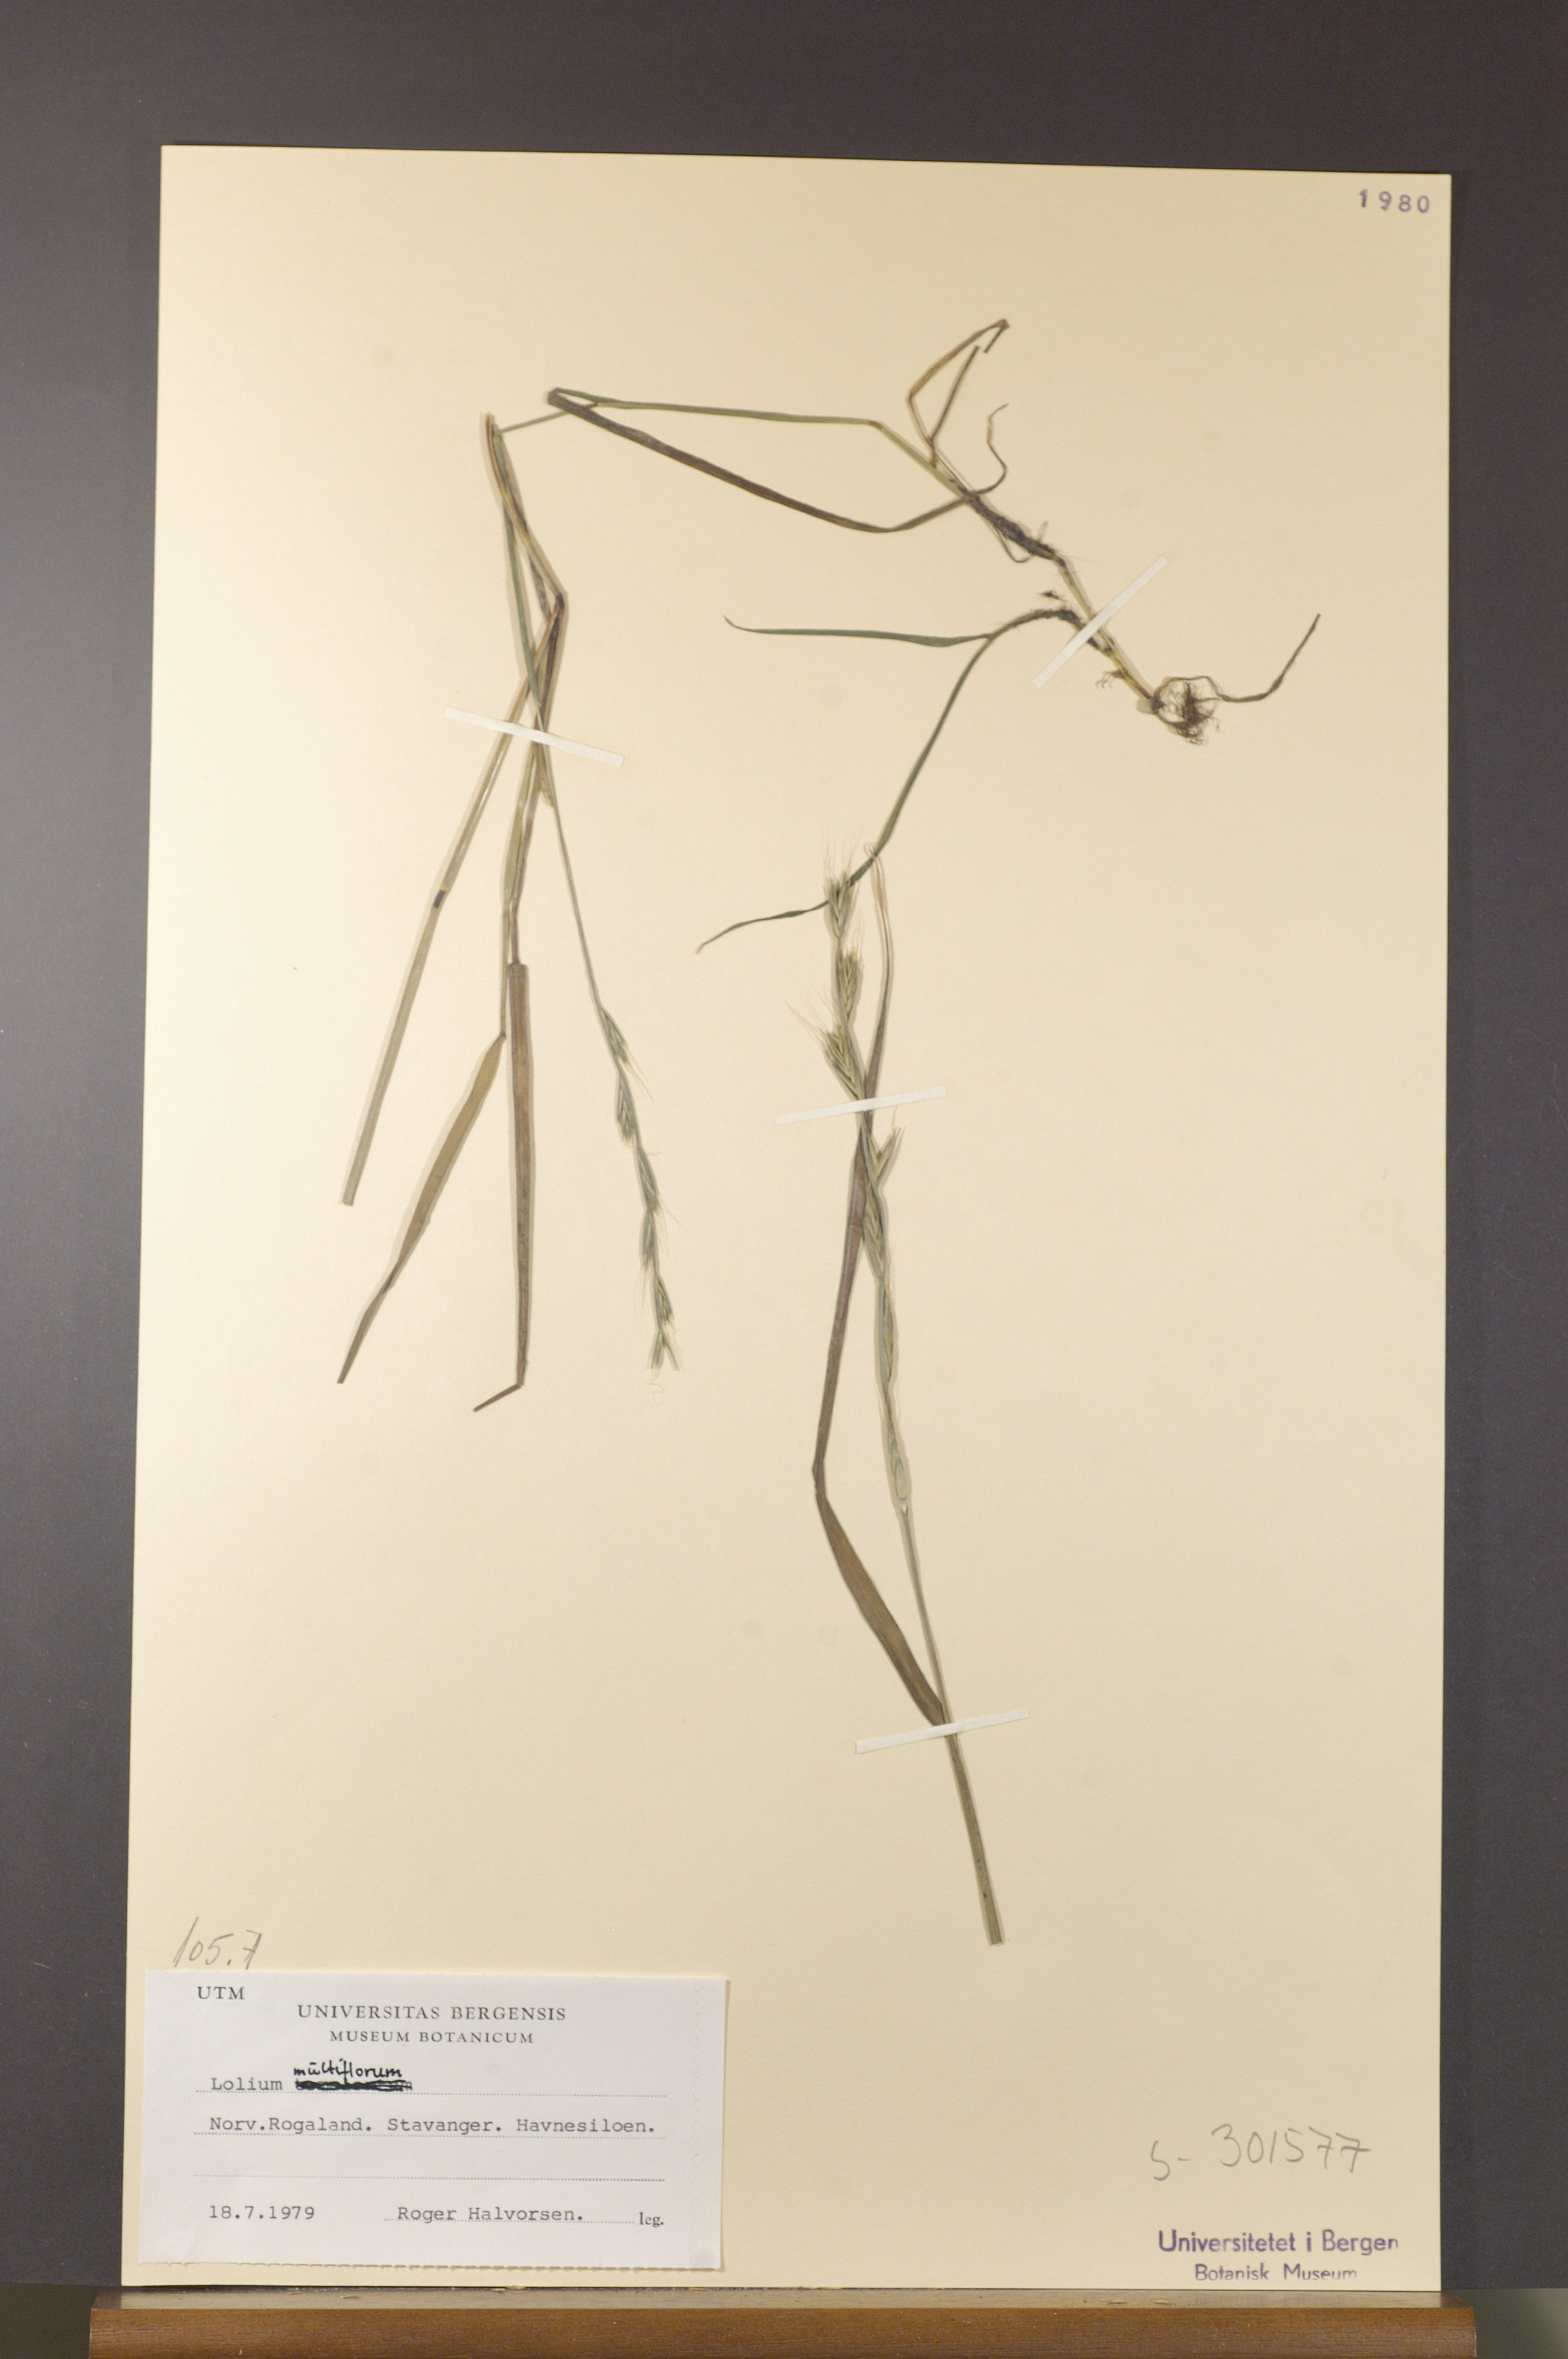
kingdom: Plantae
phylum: Tracheophyta
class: Liliopsida
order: Poales
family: Poaceae
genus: Lolium
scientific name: Lolium multiflorum
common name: Annual ryegrass
